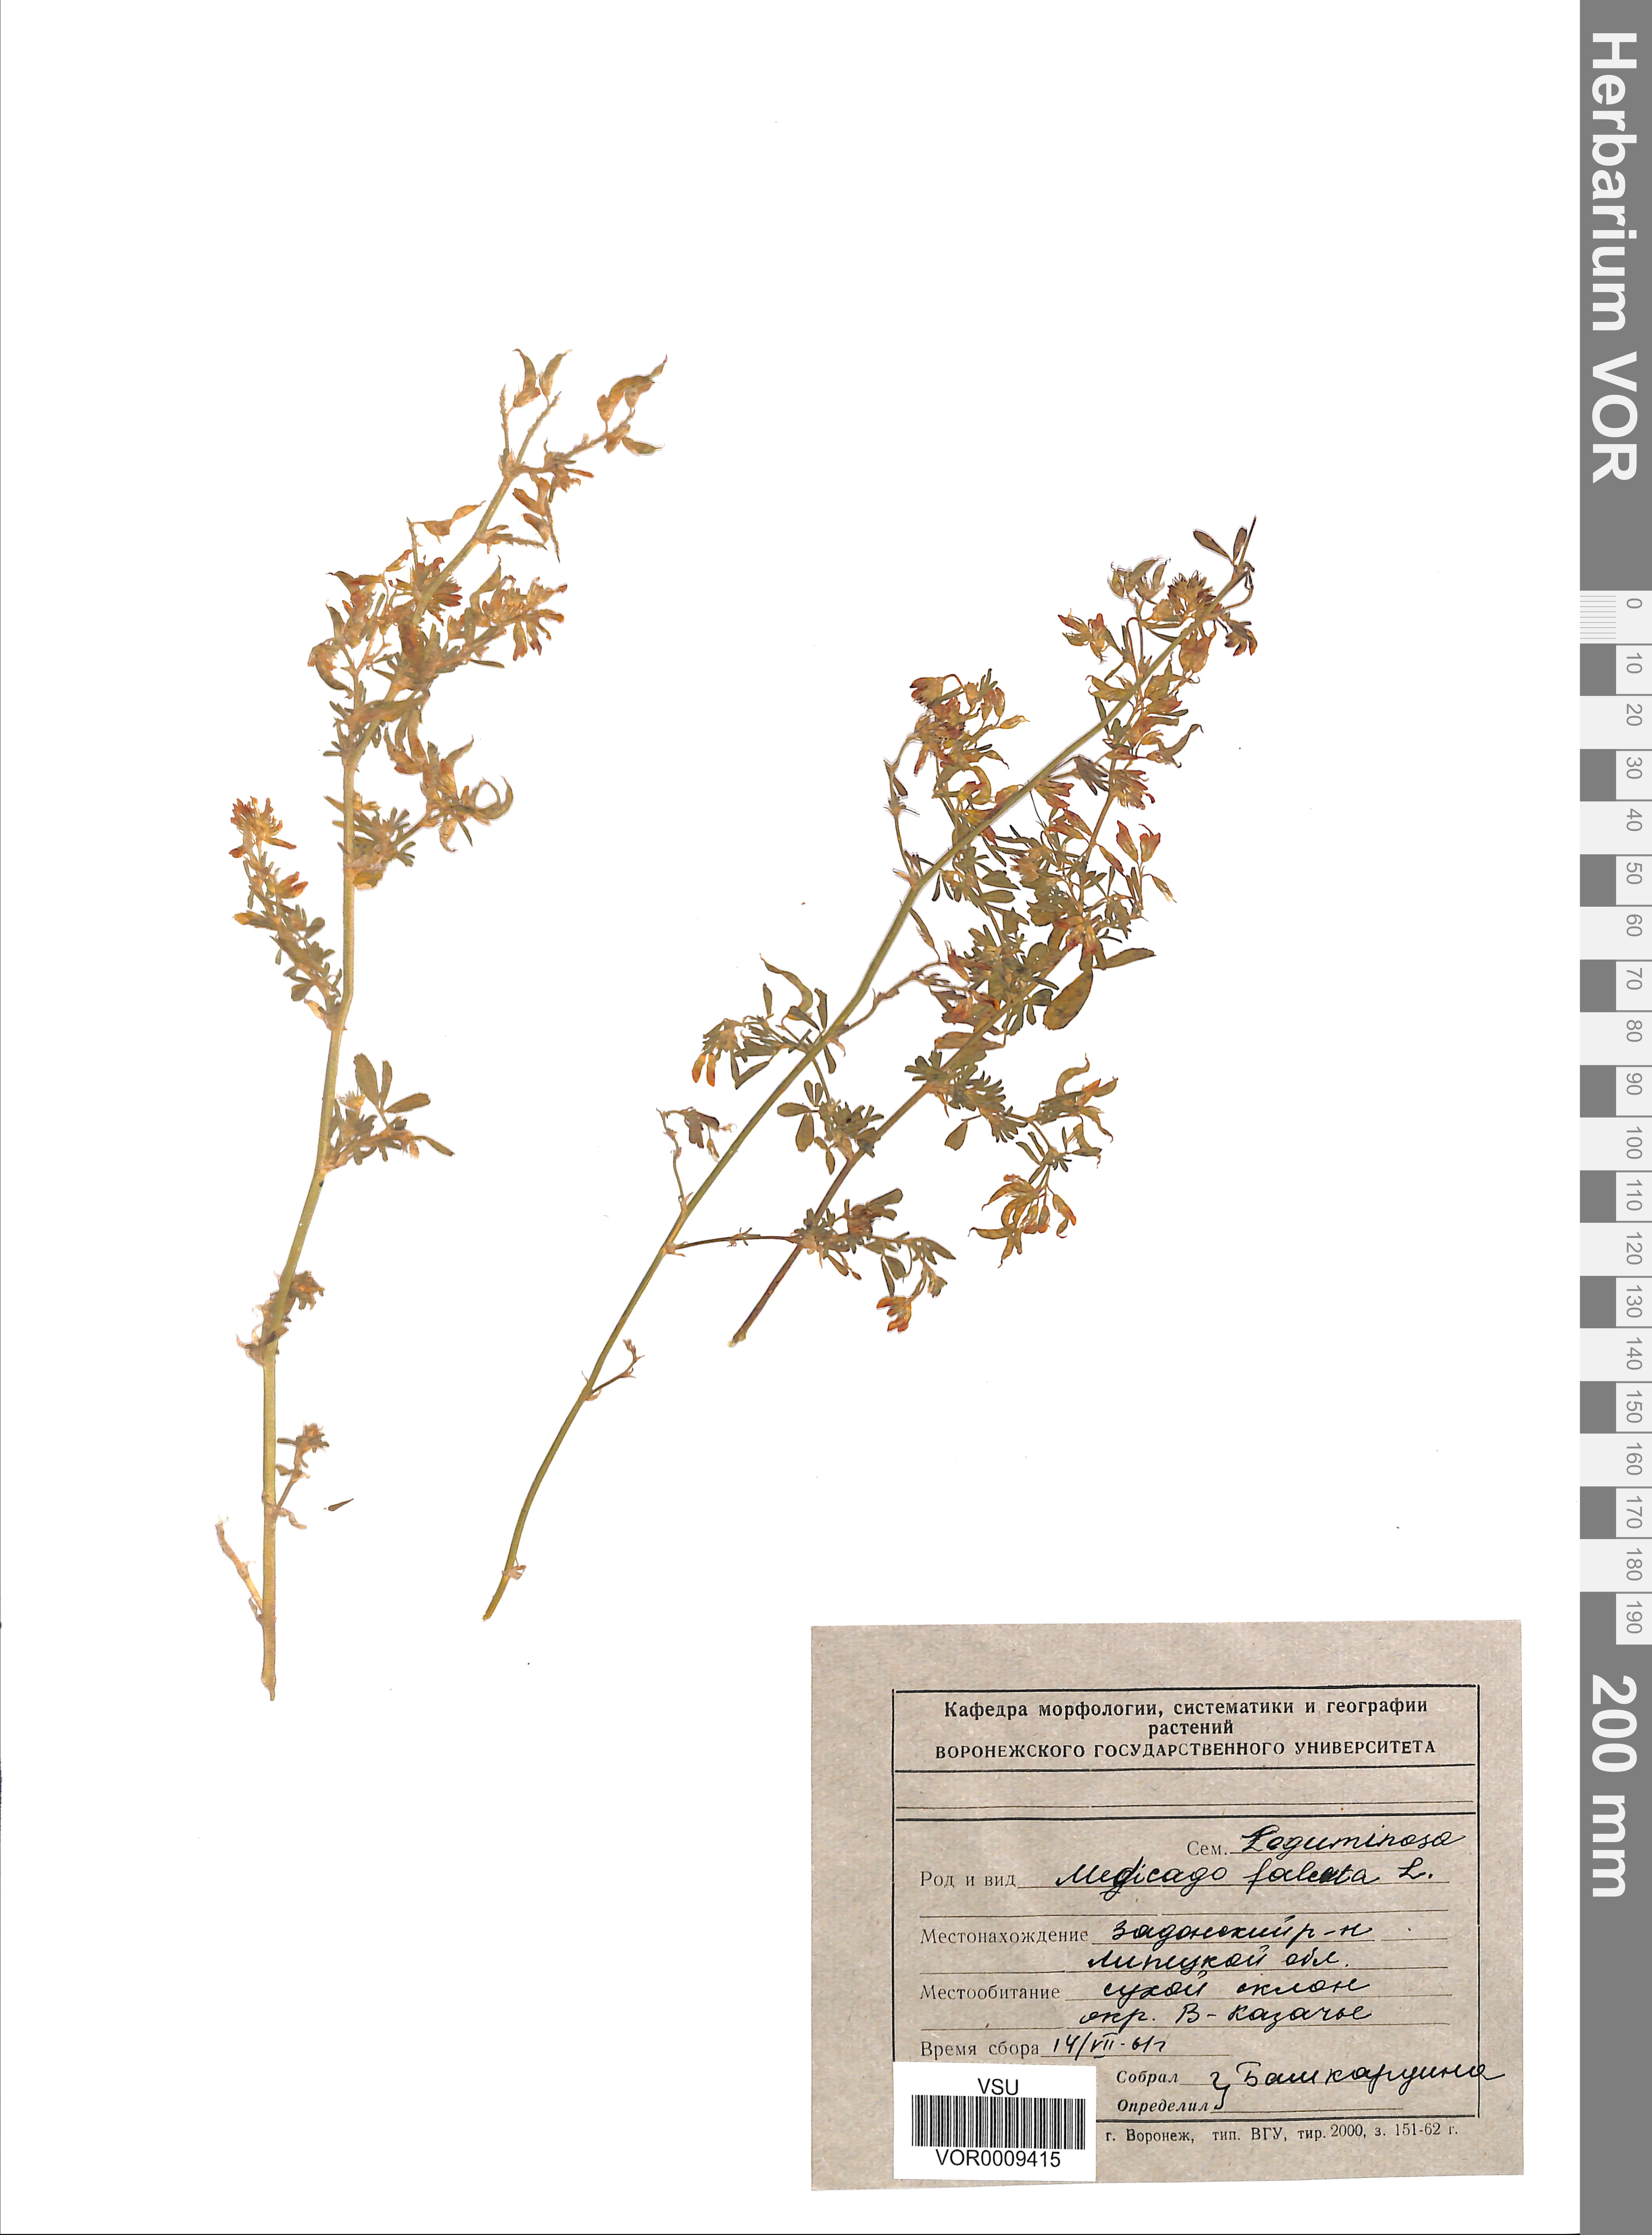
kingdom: Plantae
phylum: Tracheophyta
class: Magnoliopsida
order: Fabales
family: Fabaceae
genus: Medicago
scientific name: Medicago falcata
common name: Sickle medick
